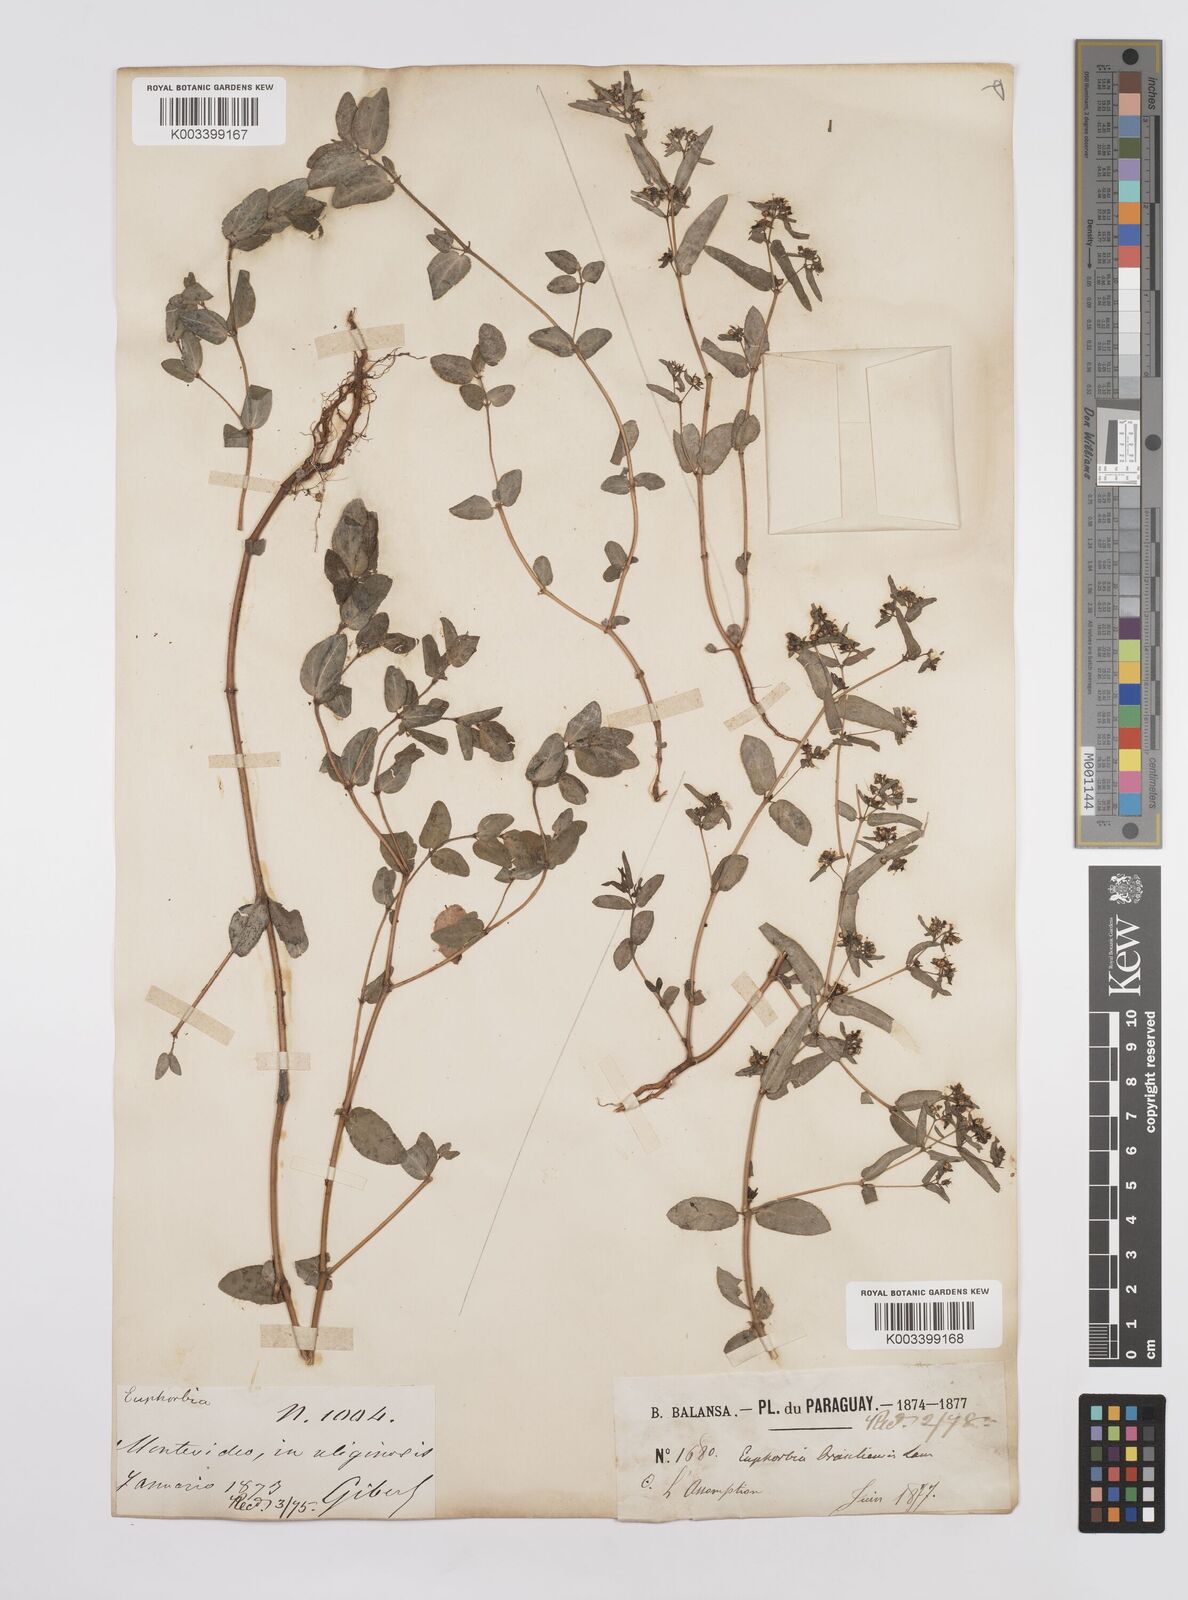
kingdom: Plantae
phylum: Tracheophyta
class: Magnoliopsida
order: Malpighiales
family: Euphorbiaceae
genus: Euphorbia
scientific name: Euphorbia hyssopifolia
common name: Hyssopleaf sandmat
